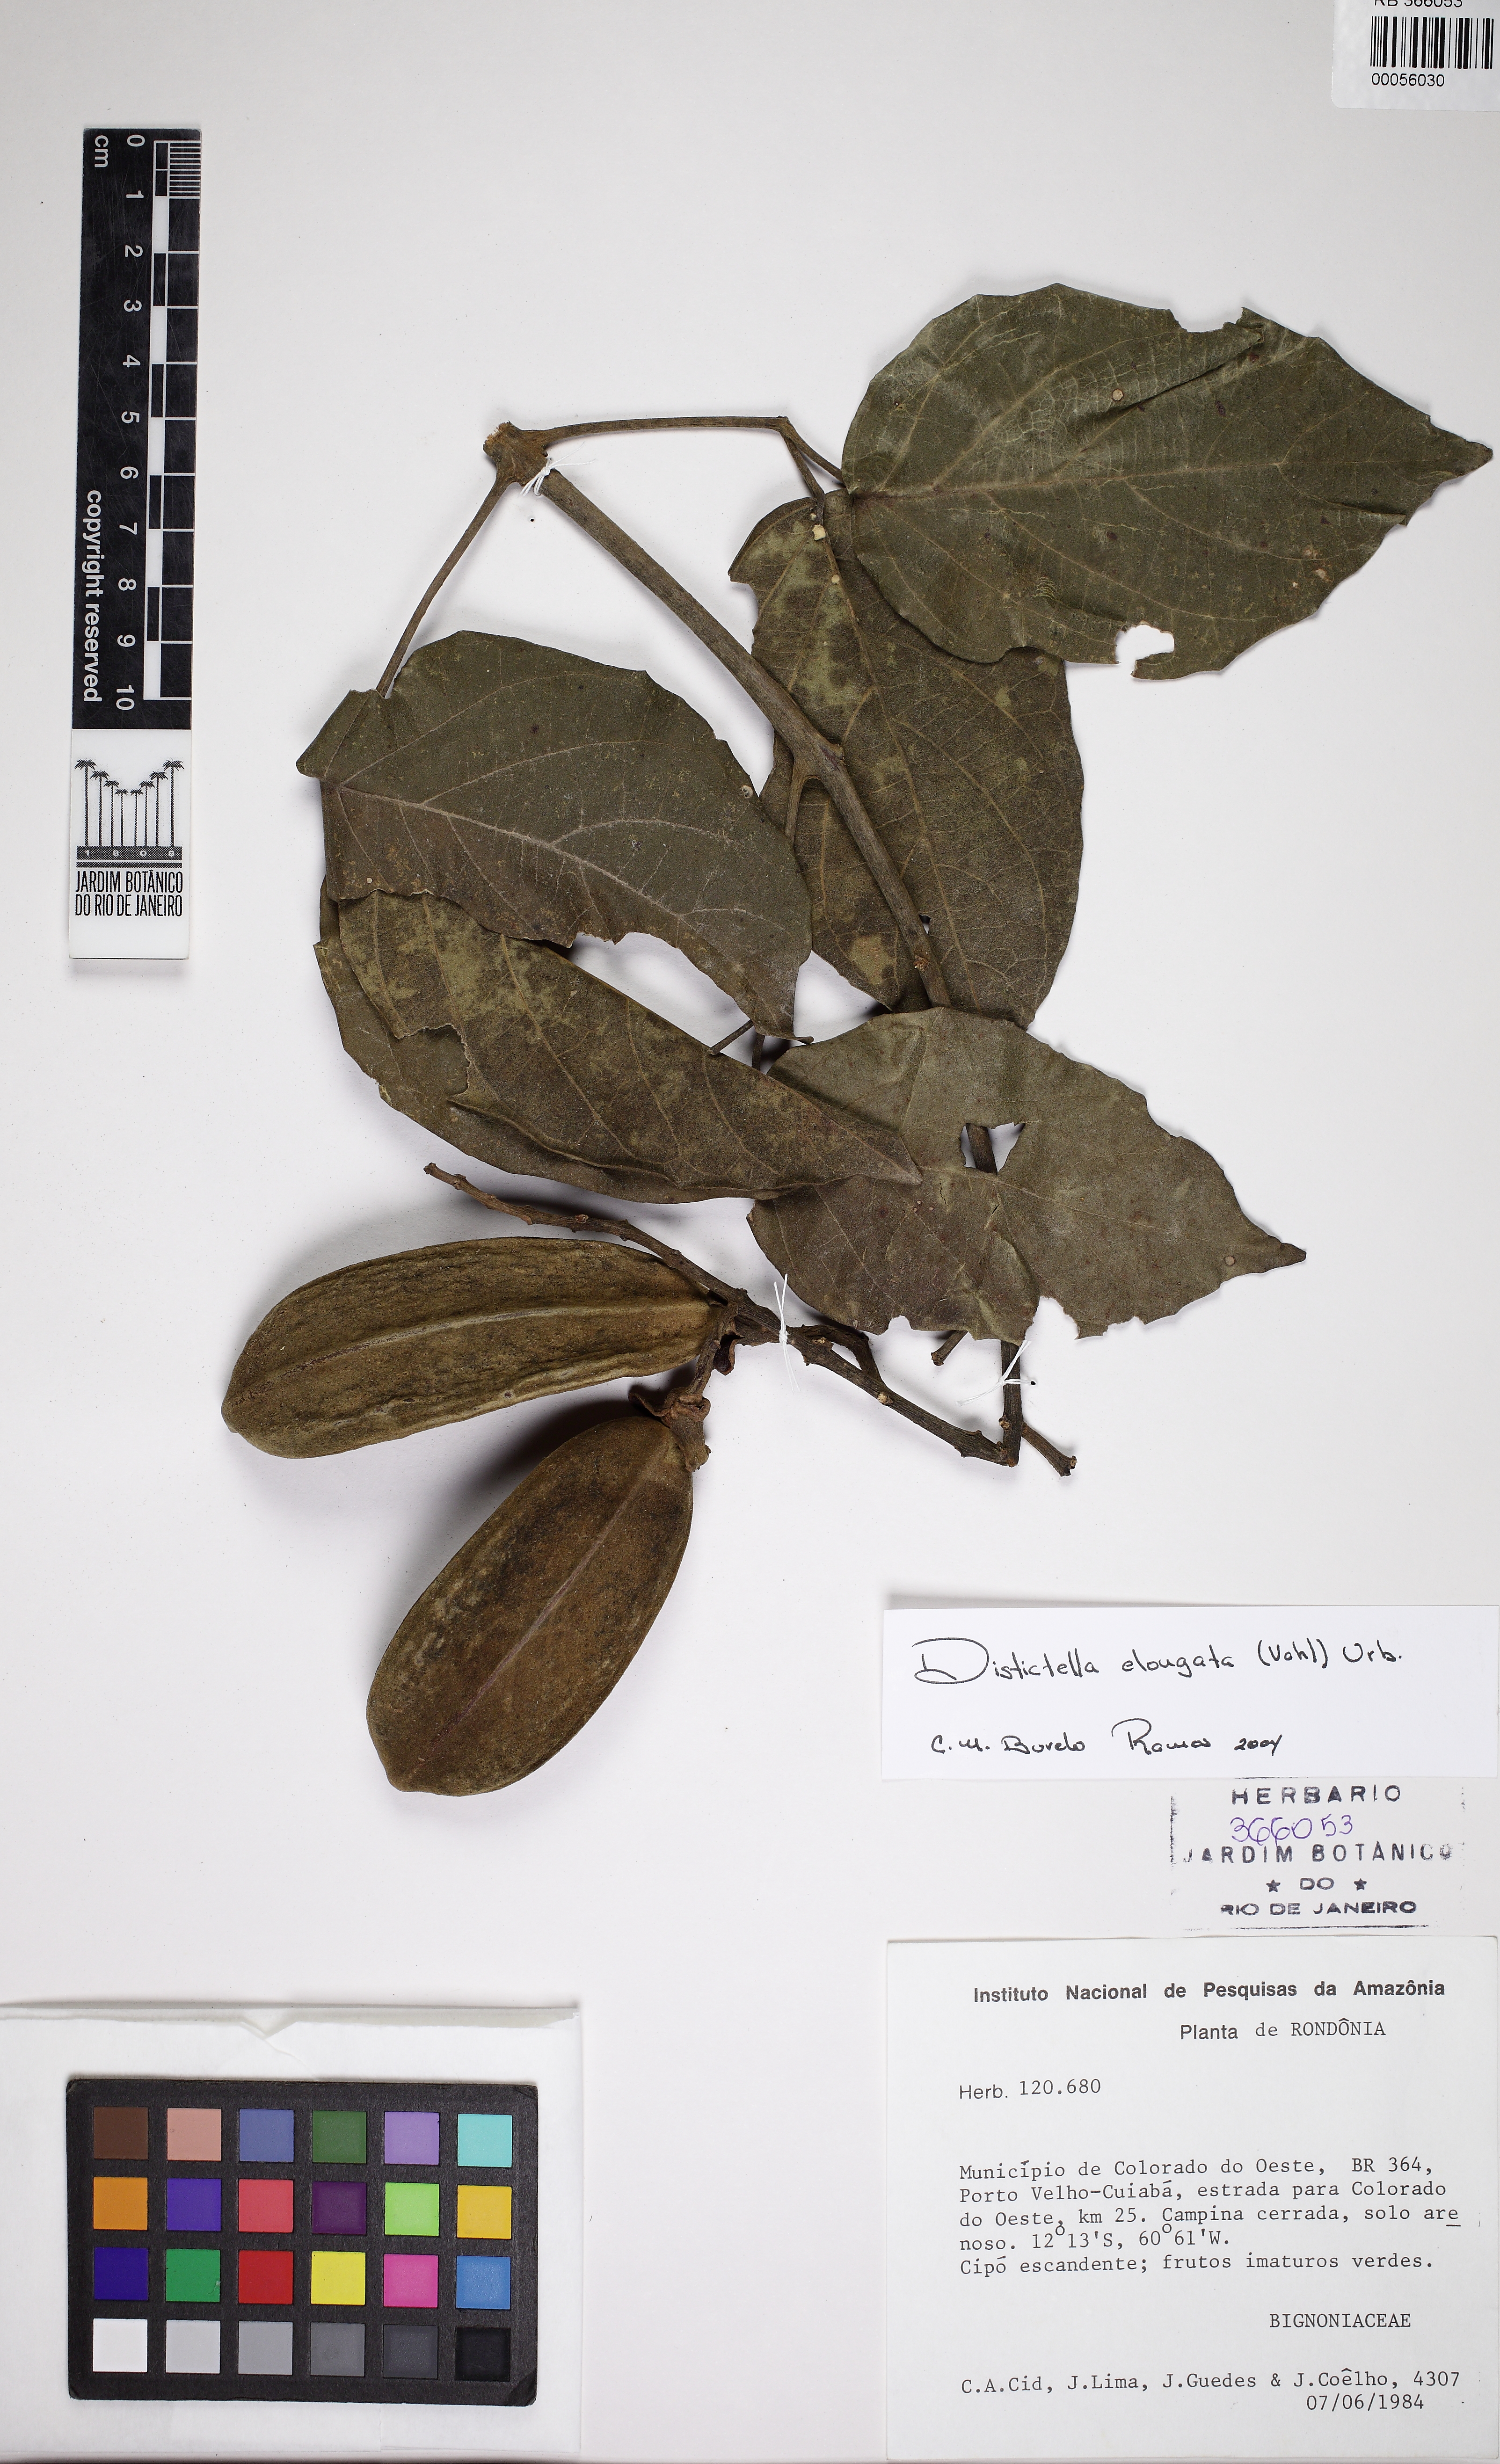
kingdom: Plantae
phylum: Tracheophyta
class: Magnoliopsida
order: Lamiales
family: Bignoniaceae
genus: Amphilophium
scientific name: Amphilophium elongatum
